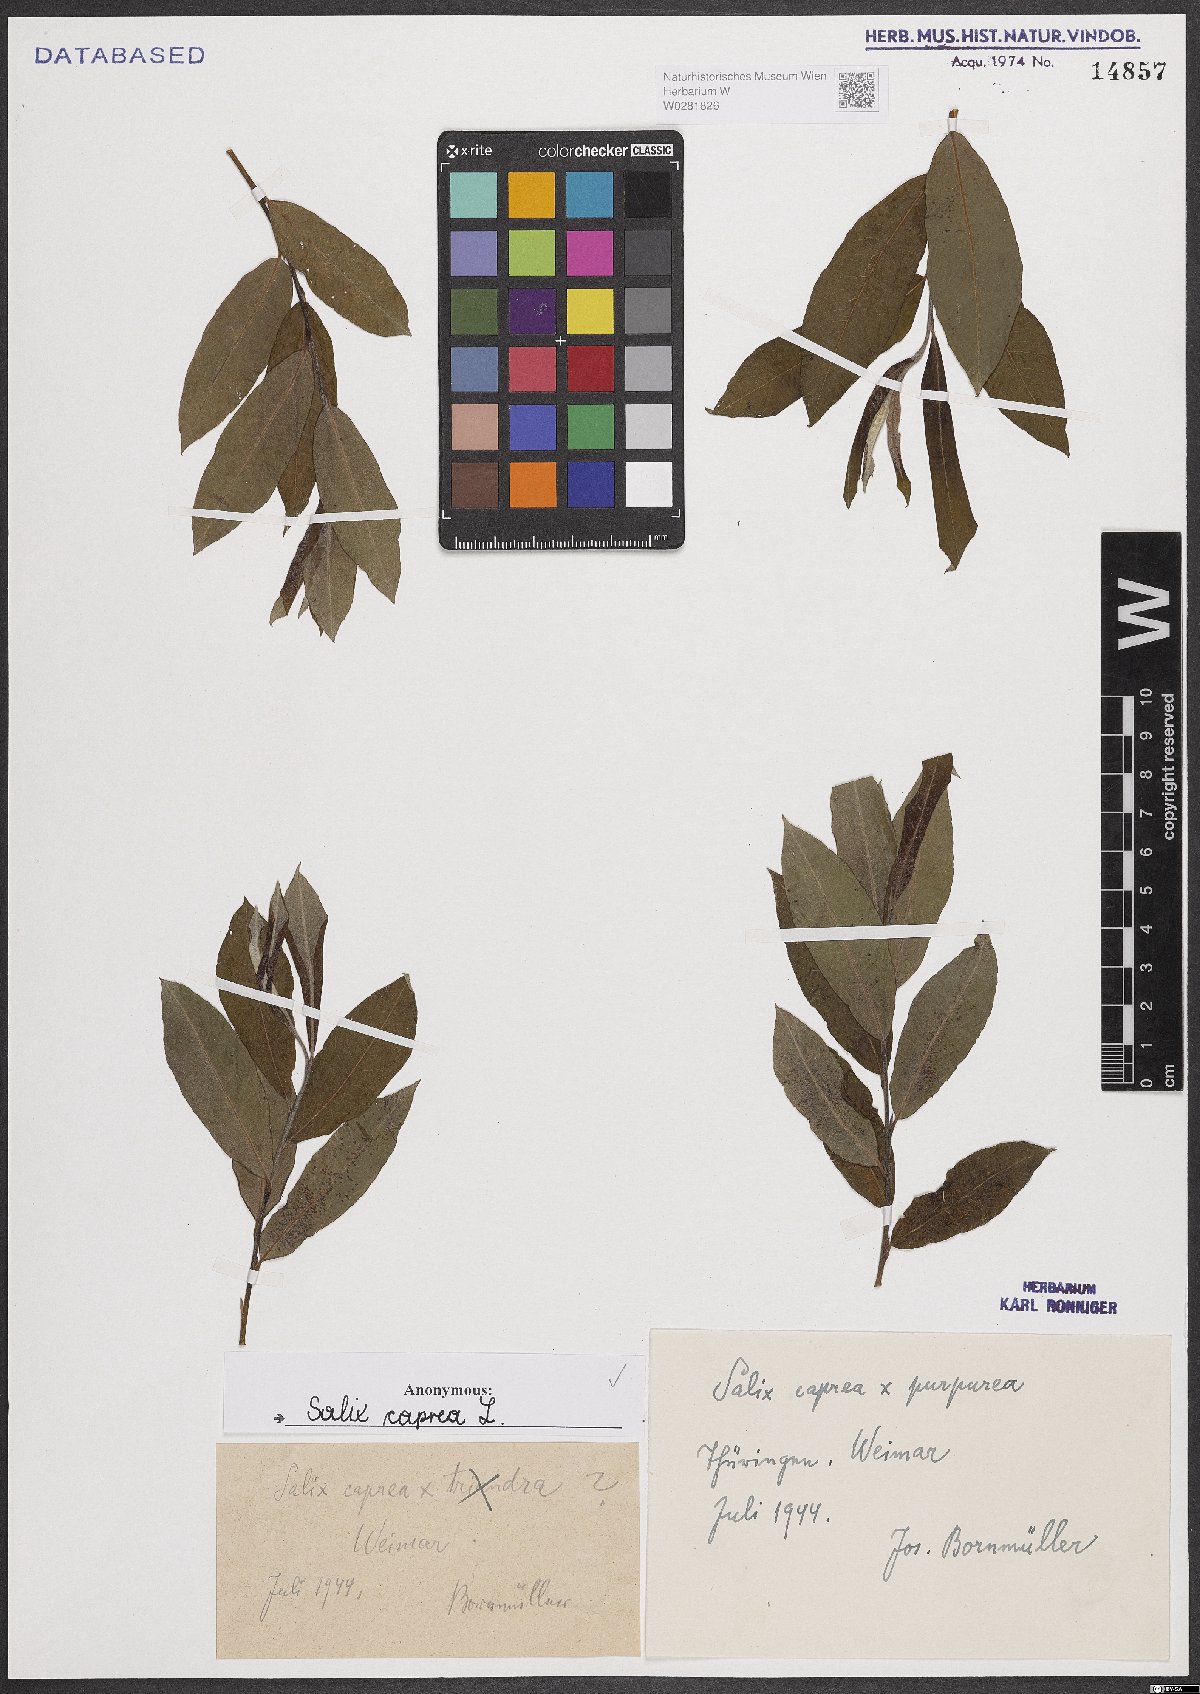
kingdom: Plantae
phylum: Tracheophyta
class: Magnoliopsida
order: Malpighiales
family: Salicaceae
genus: Salix
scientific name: Salix caprea
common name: Goat willow
